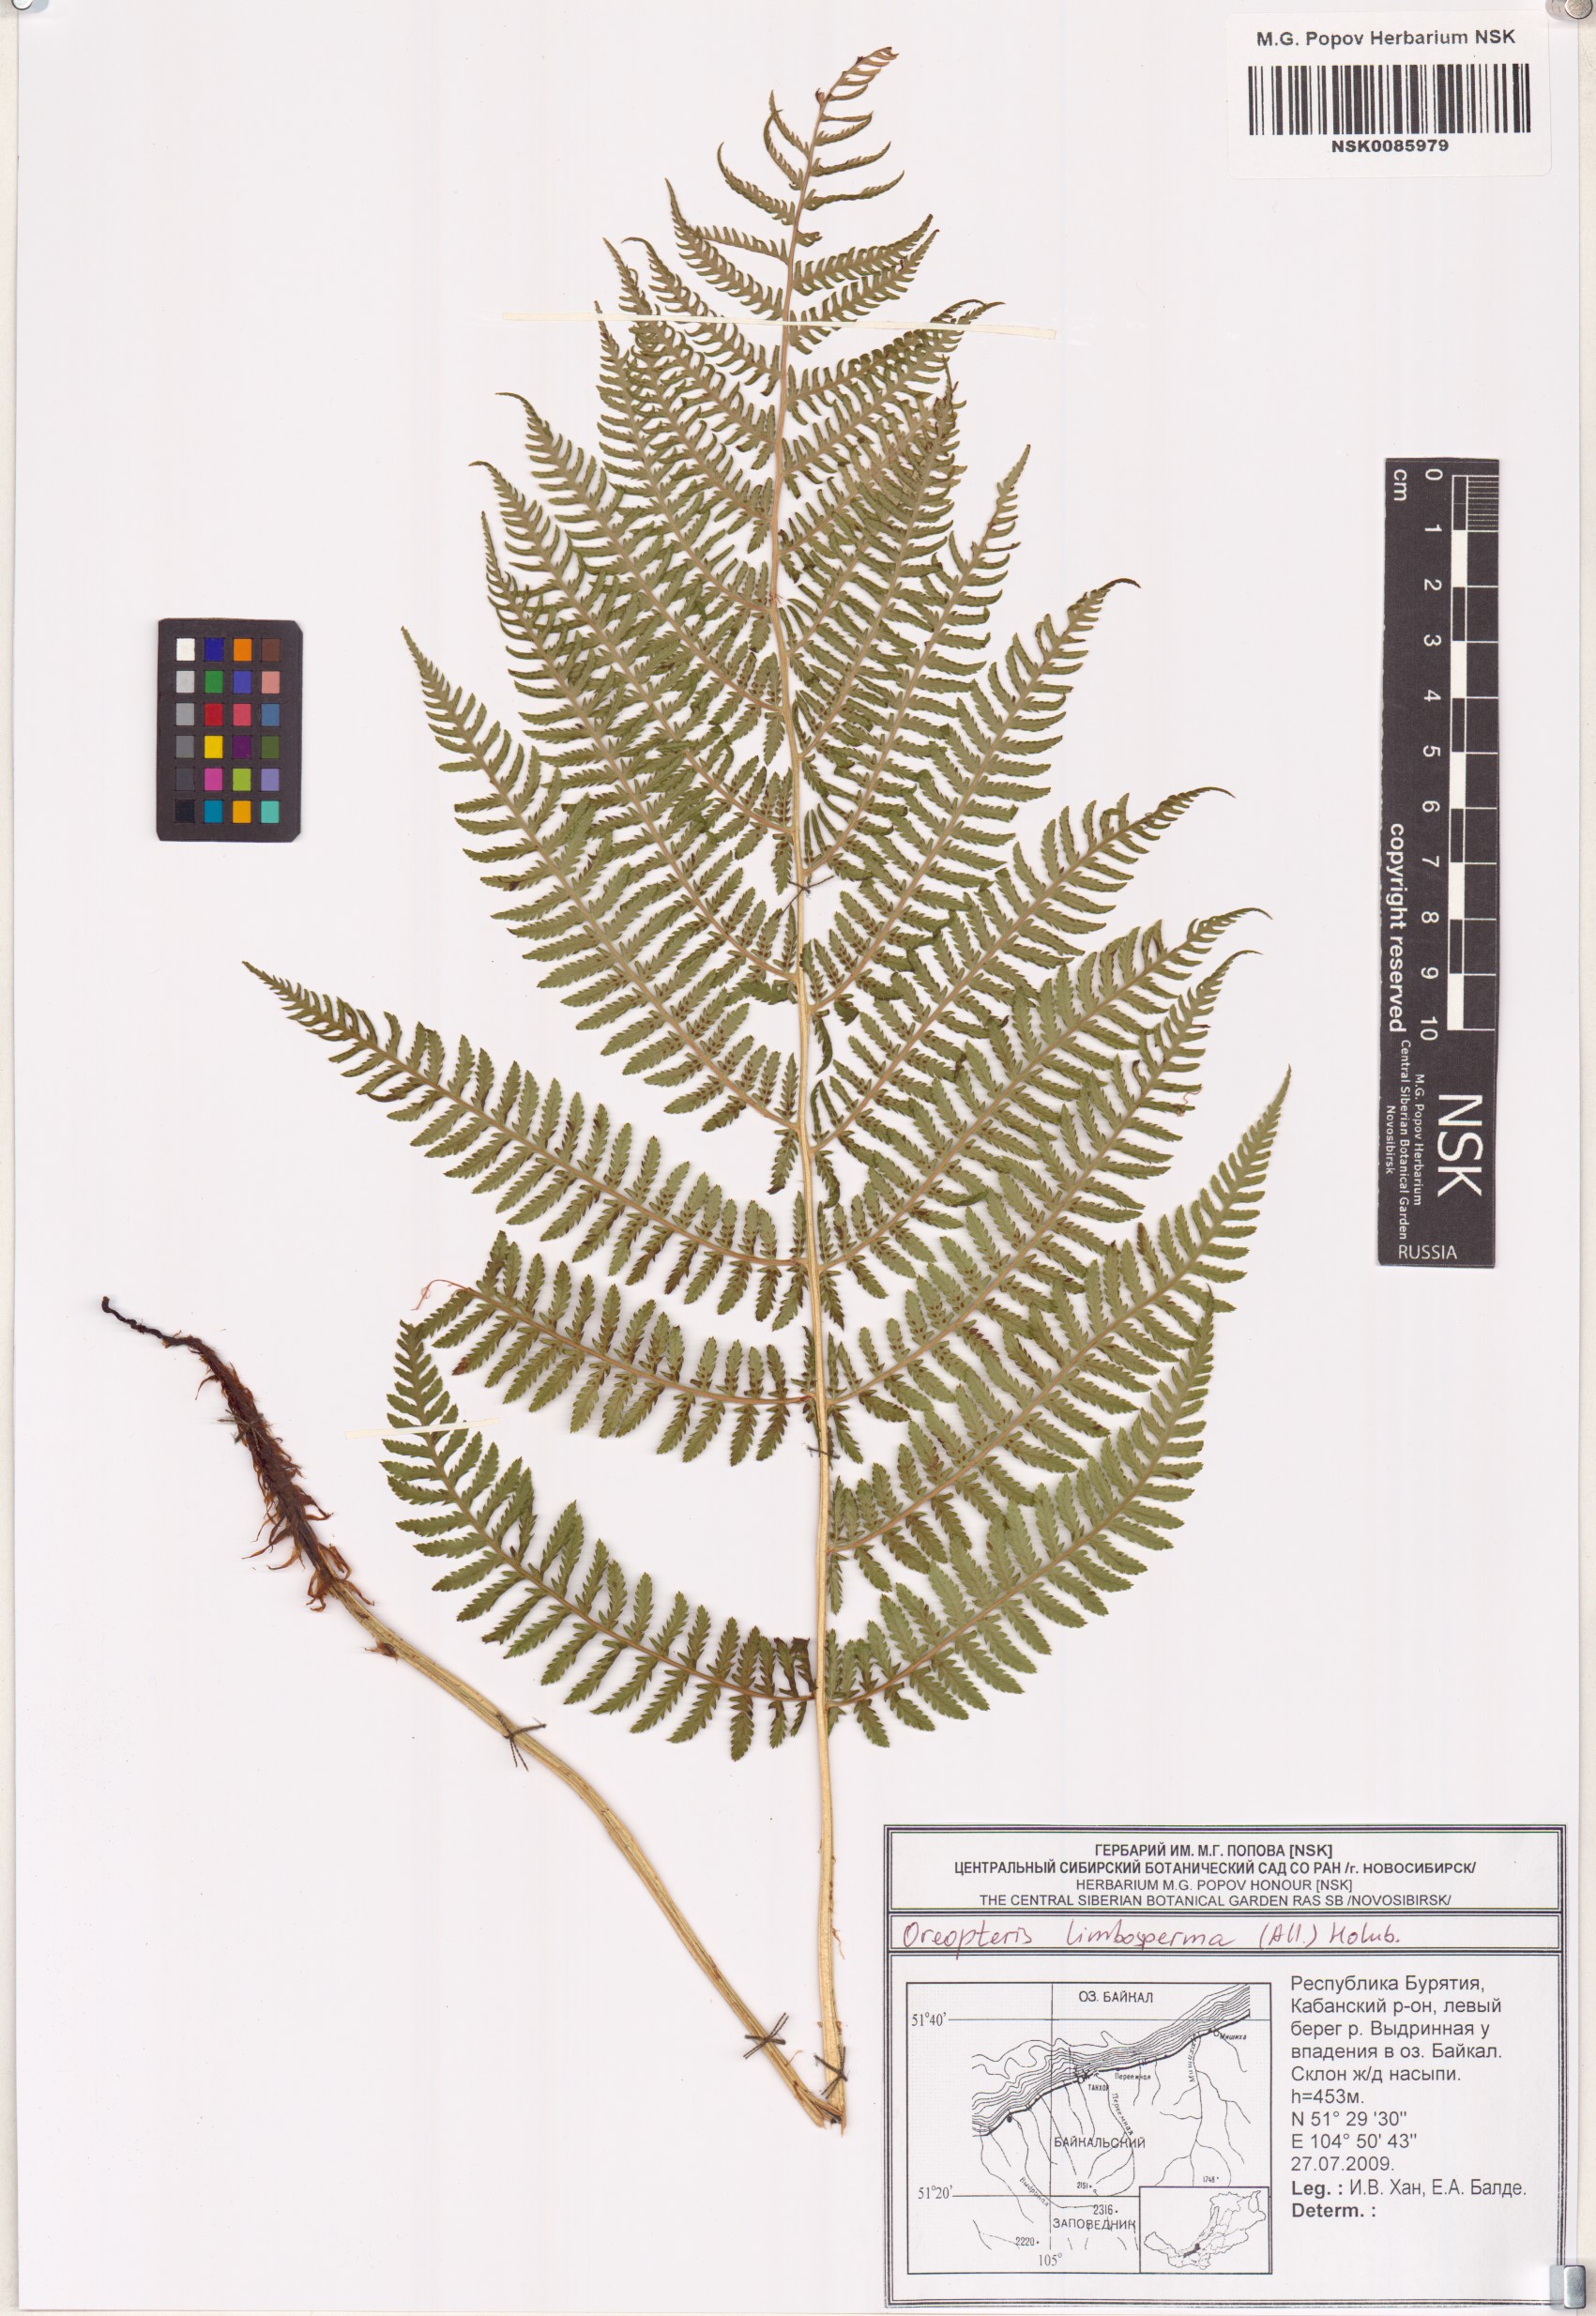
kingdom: Plantae
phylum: Tracheophyta
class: Polypodiopsida
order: Polypodiales
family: Thelypteridaceae
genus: Oreopteris
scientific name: Oreopteris limbosperma
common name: Lemon-scented fern
